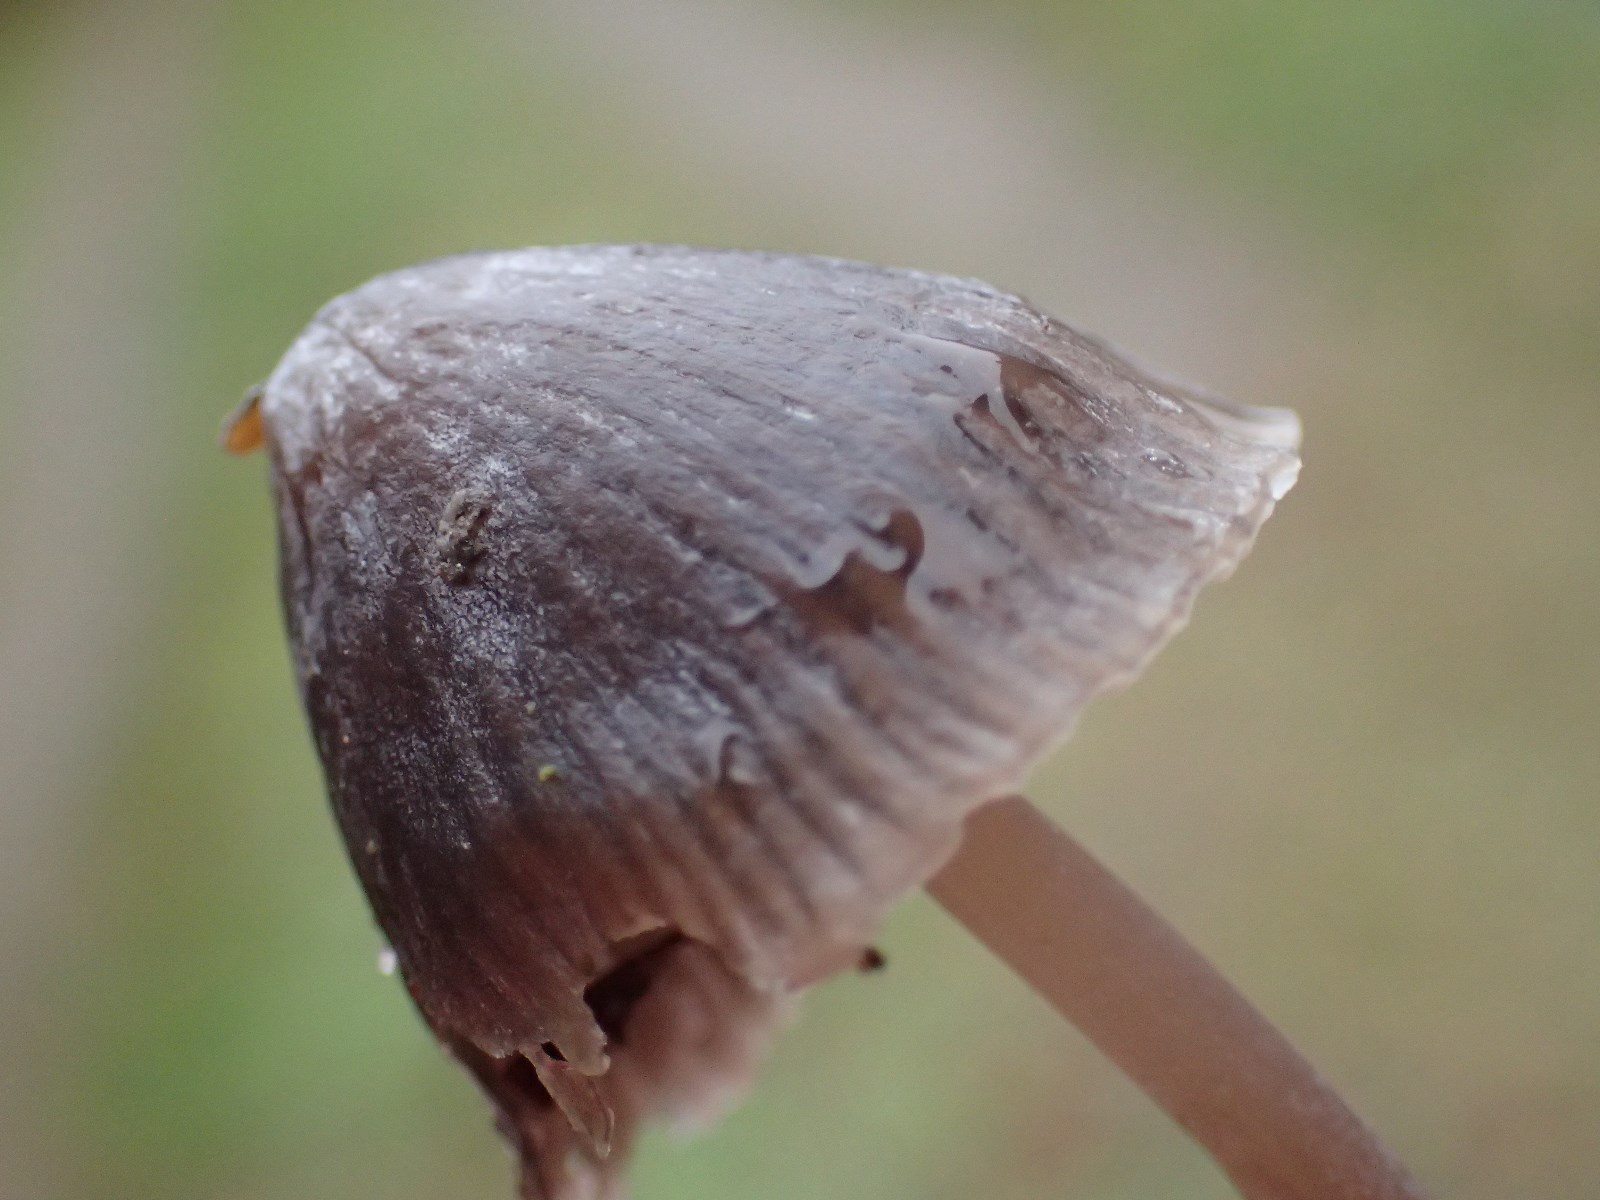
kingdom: Fungi
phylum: Basidiomycota
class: Agaricomycetes
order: Agaricales
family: Mycenaceae
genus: Mycena
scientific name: Mycena leptocephala
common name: klor-huesvamp
